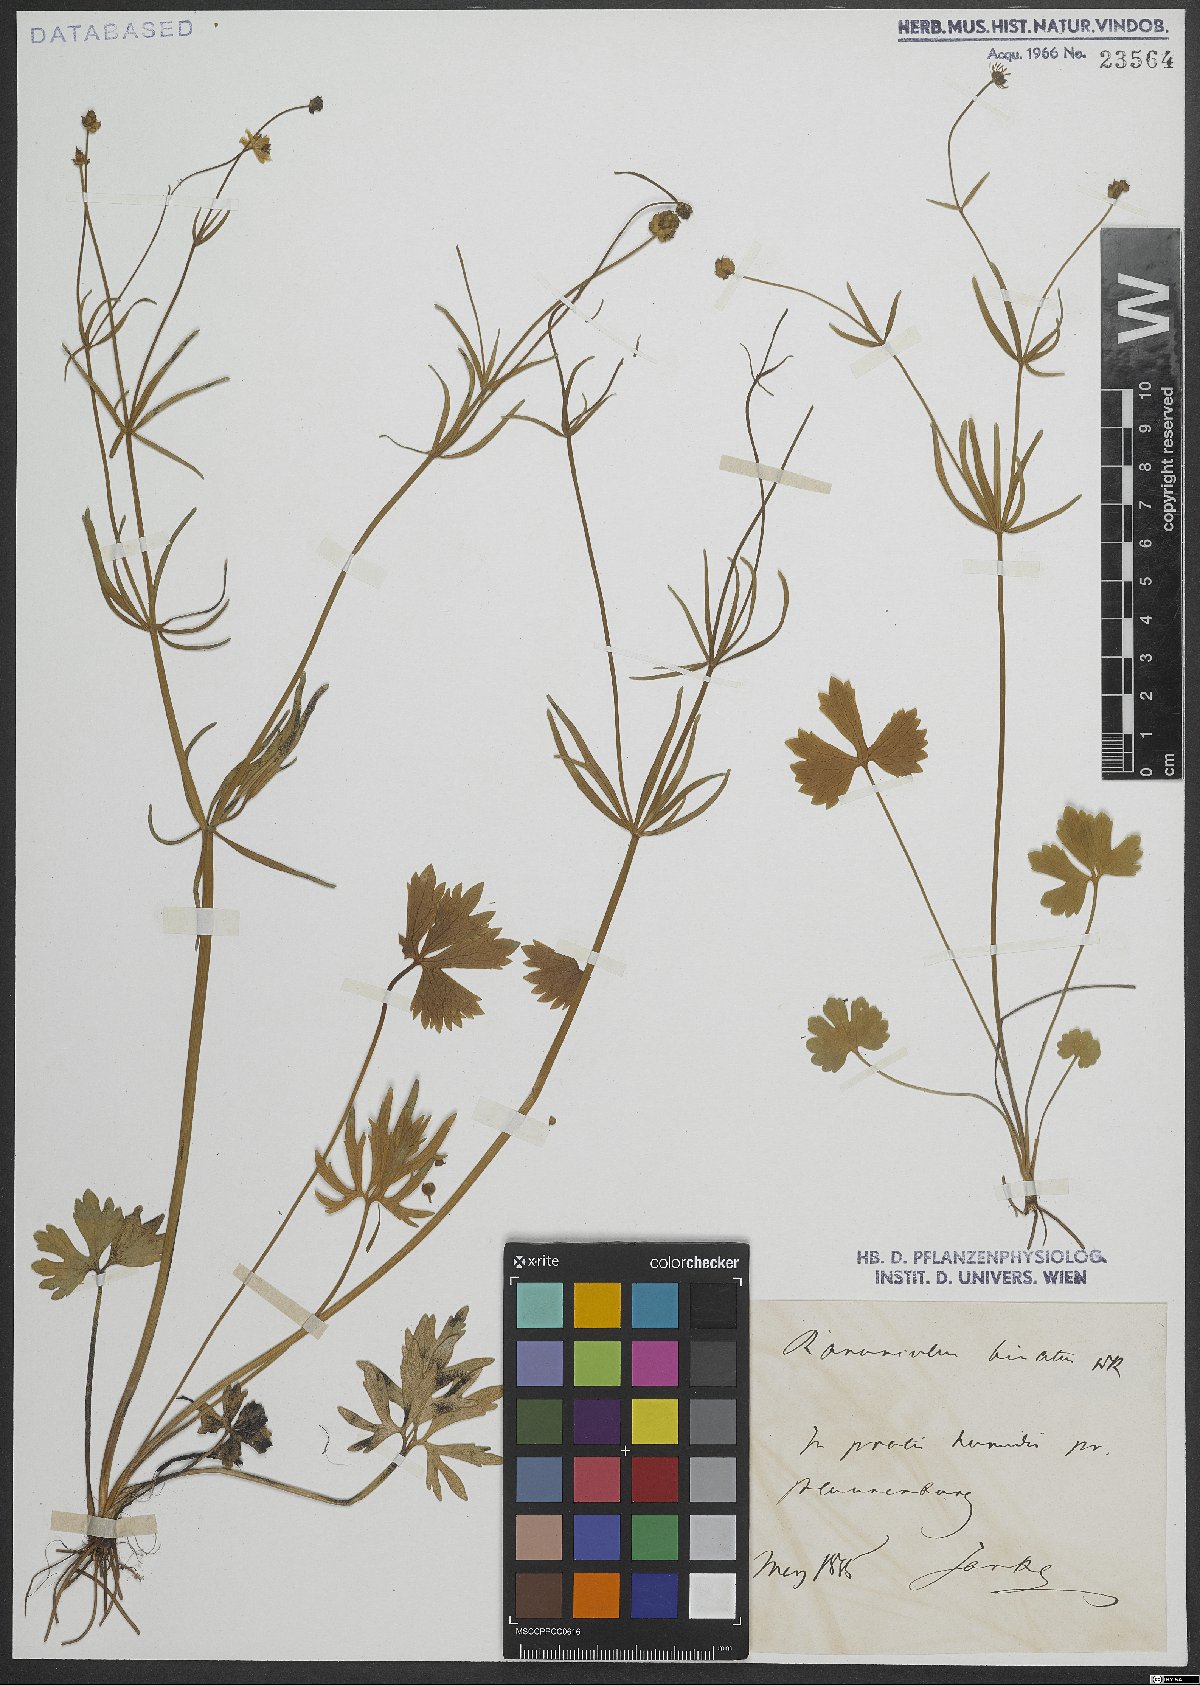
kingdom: Plantae
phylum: Tracheophyta
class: Magnoliopsida
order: Ranunculales
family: Ranunculaceae
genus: Ranunculus
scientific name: Ranunculus binatus
